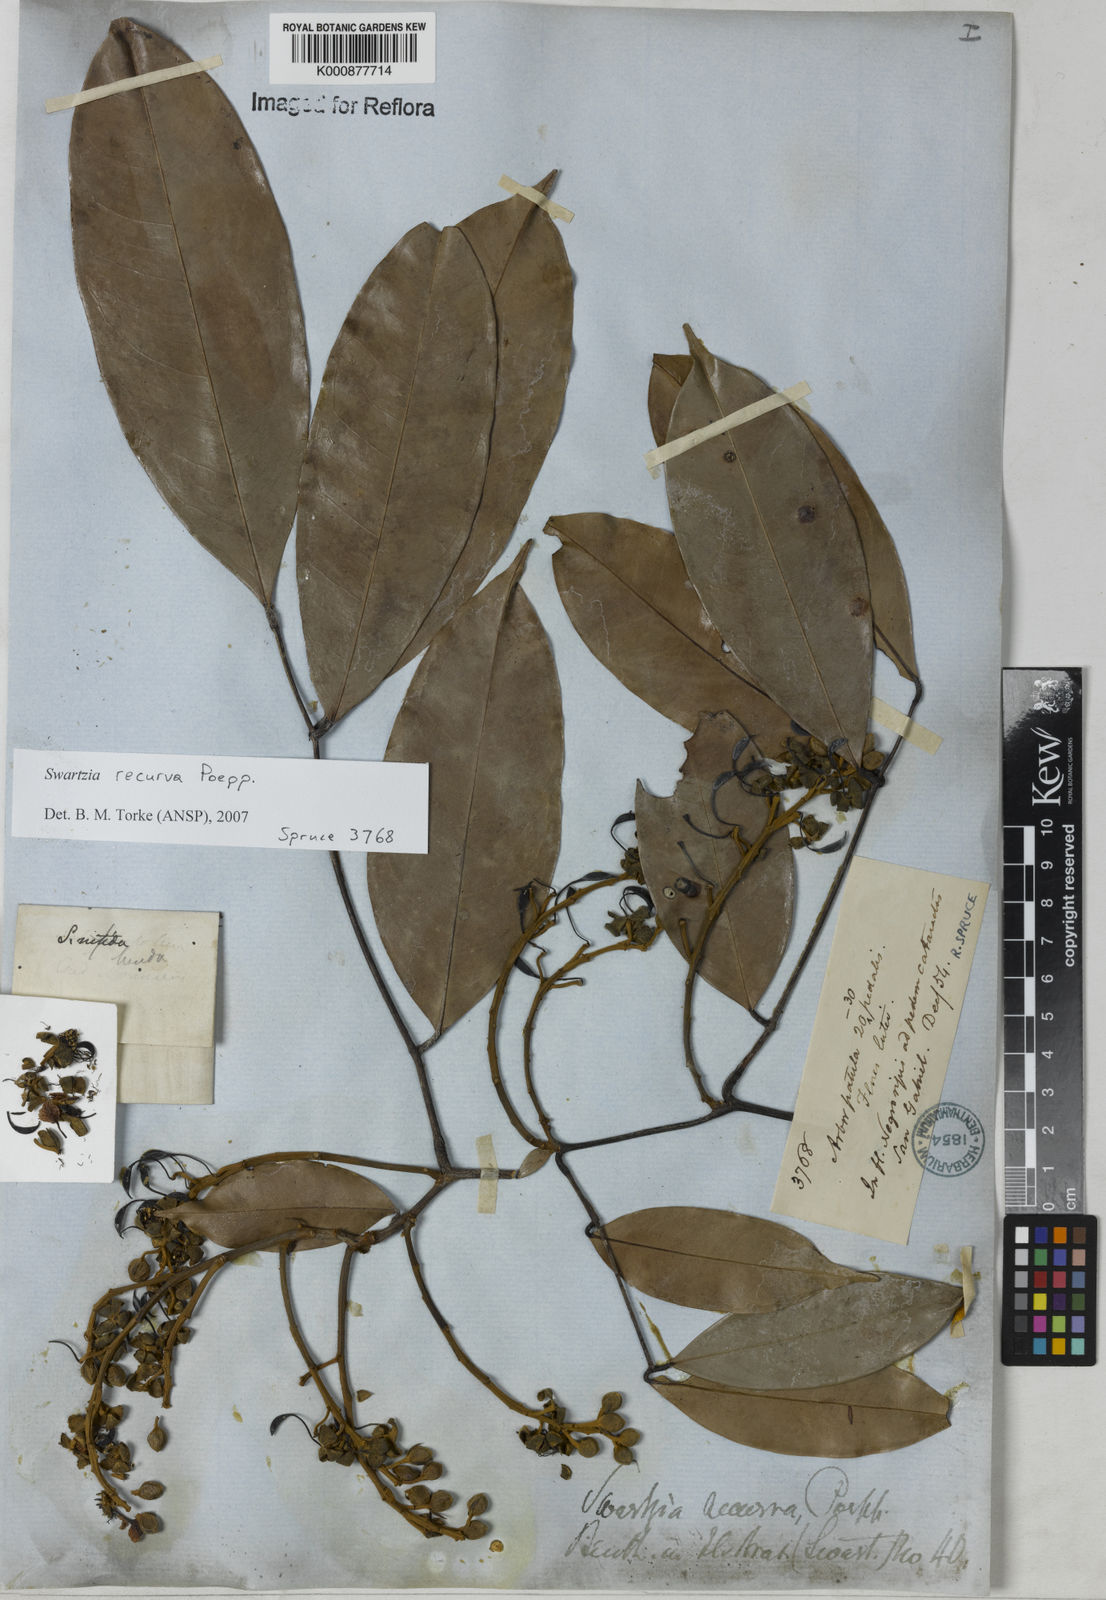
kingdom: Plantae
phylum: Tracheophyta
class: Magnoliopsida
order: Fabales
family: Fabaceae
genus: Swartzia
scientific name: Swartzia recurva
